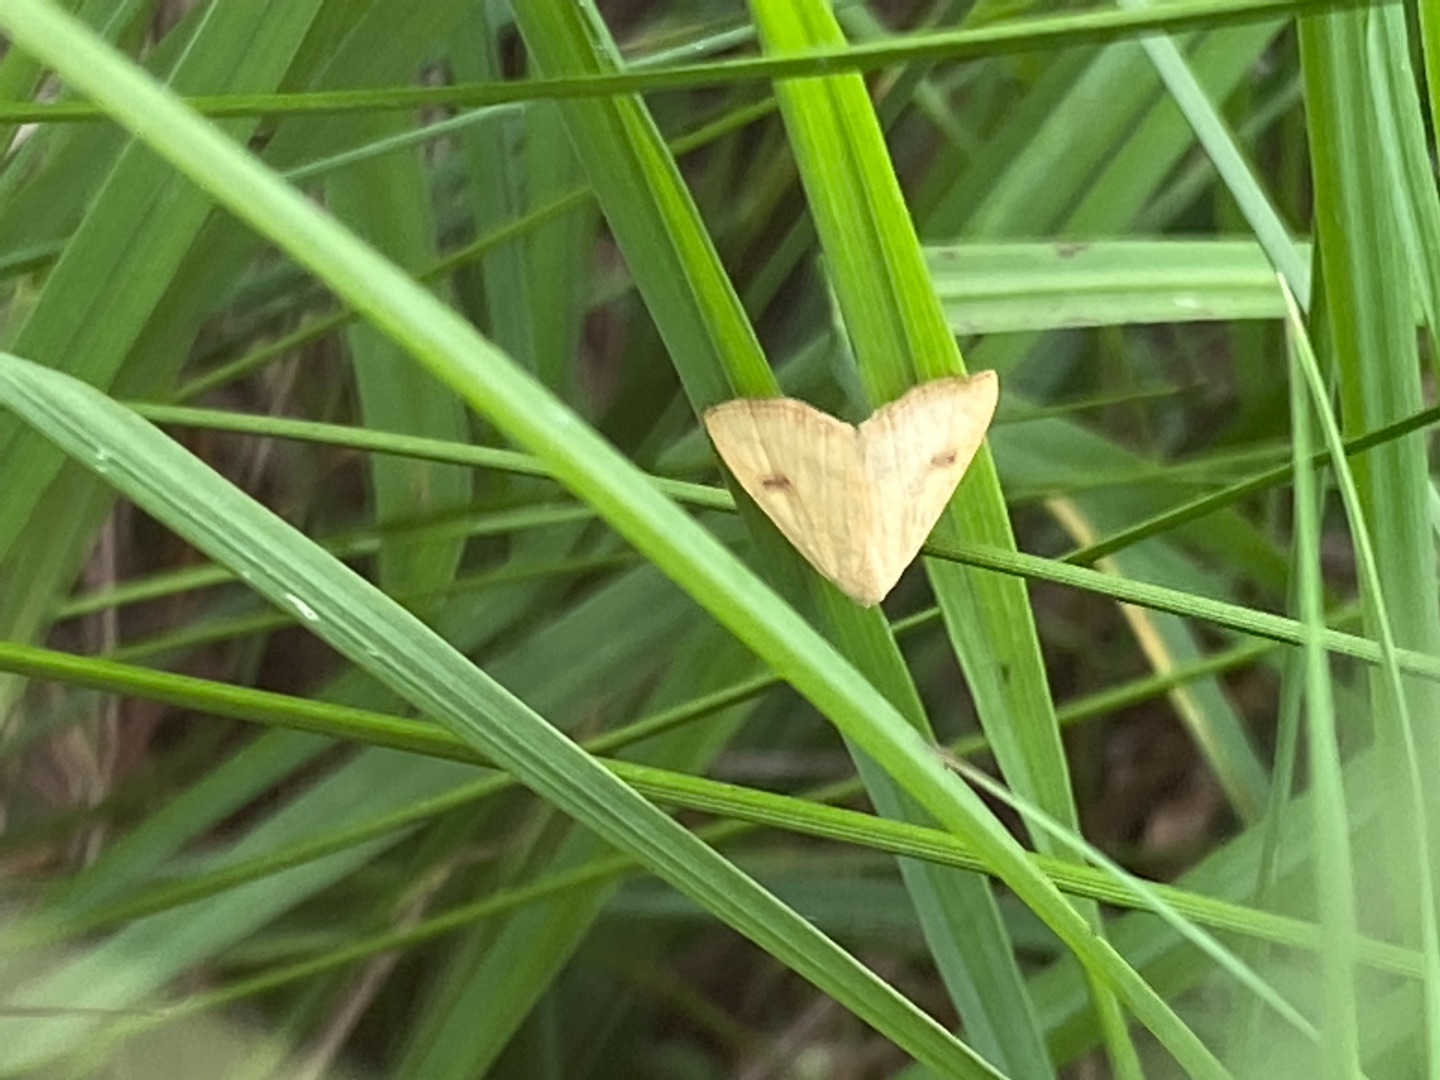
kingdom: Animalia
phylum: Arthropoda
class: Insecta
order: Lepidoptera
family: Erebidae
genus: Rivula
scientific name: Rivula sericealis
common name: Lille å-ugle
